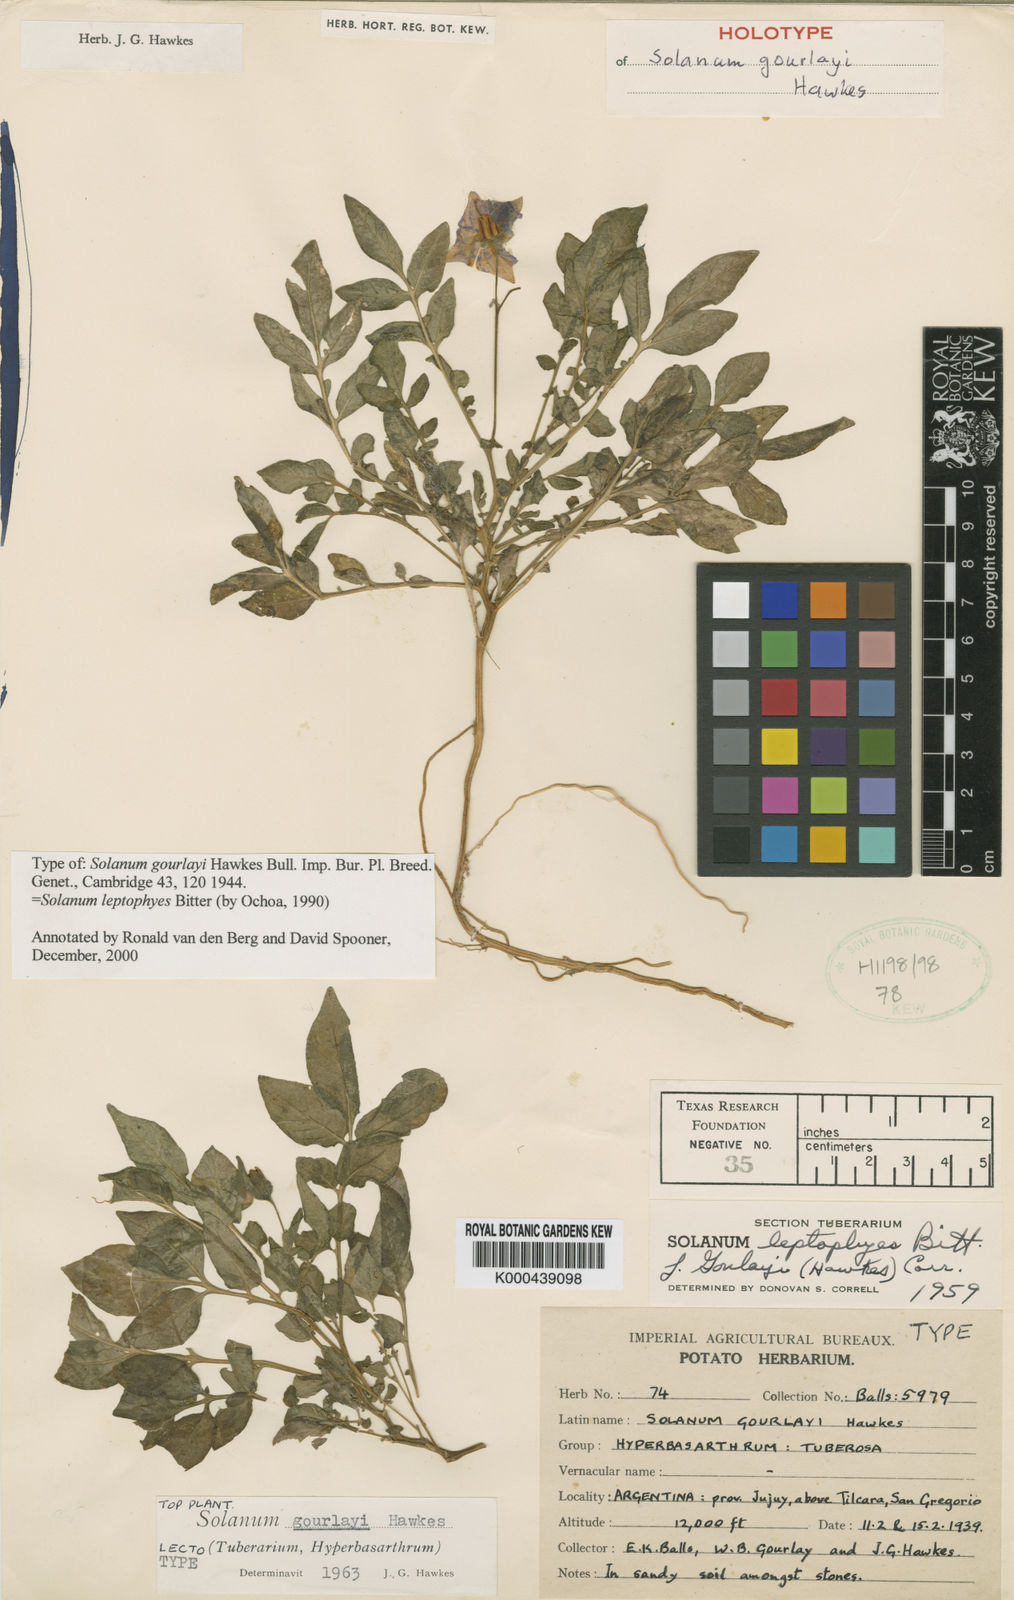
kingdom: Plantae
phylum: Tracheophyta
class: Magnoliopsida
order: Solanales
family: Solanaceae
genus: Solanum
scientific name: Solanum brevicaule
